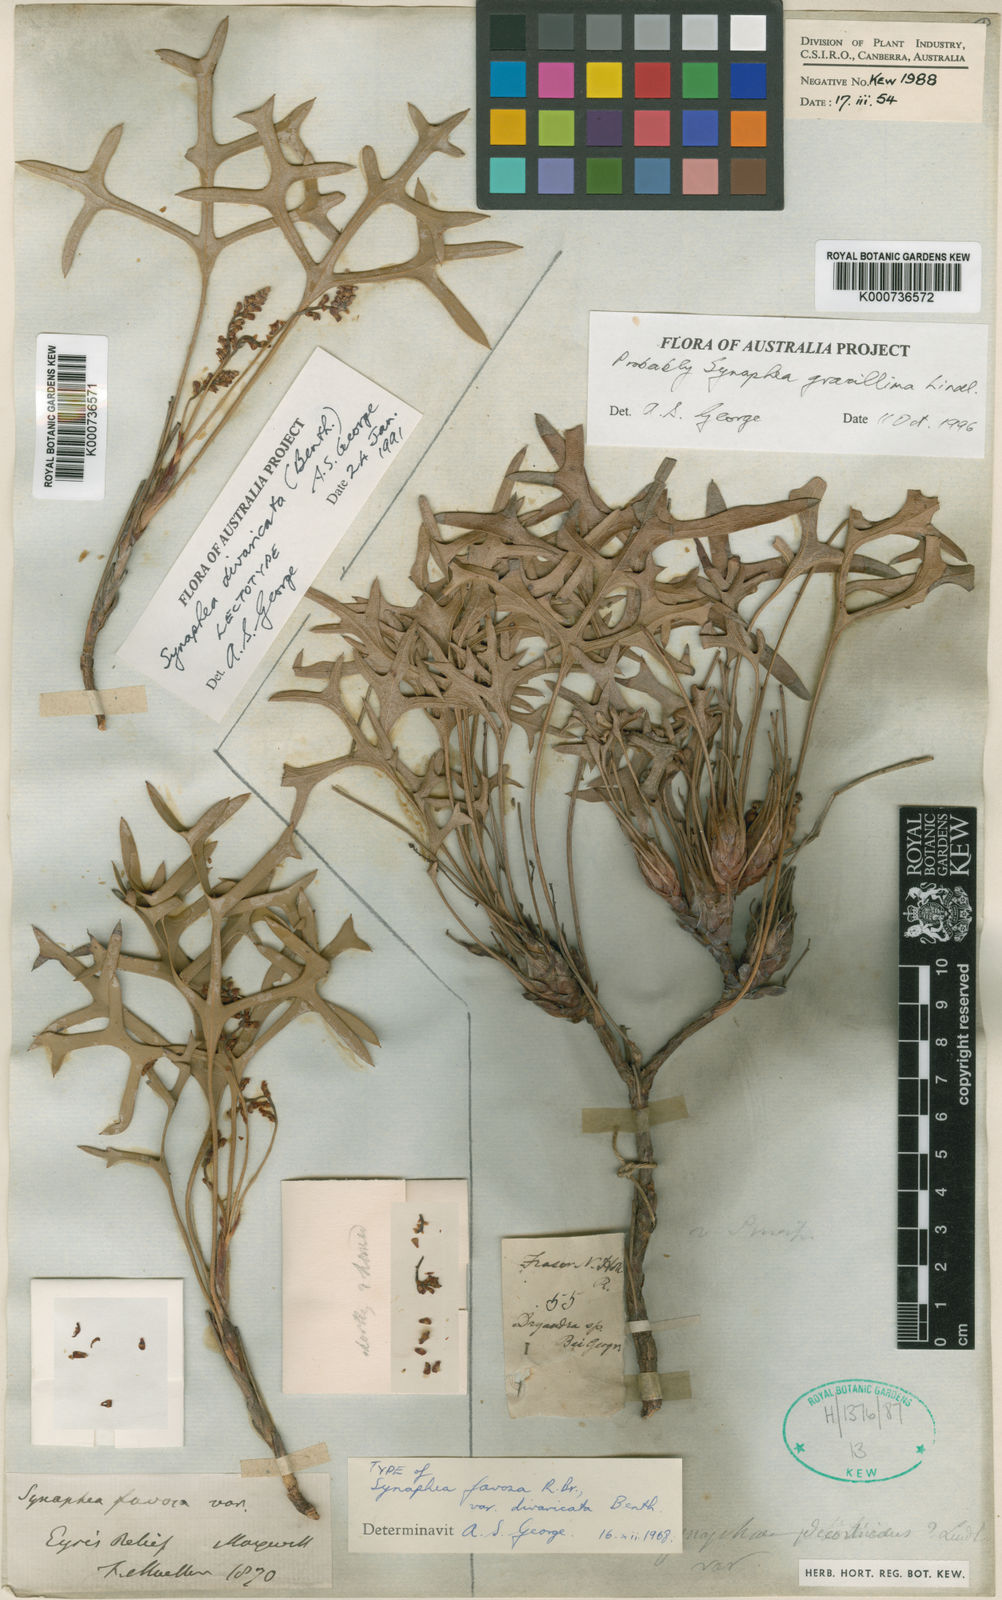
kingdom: Plantae
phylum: Tracheophyta
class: Magnoliopsida
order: Proteales
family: Proteaceae
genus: Synaphea
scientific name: Synaphea
